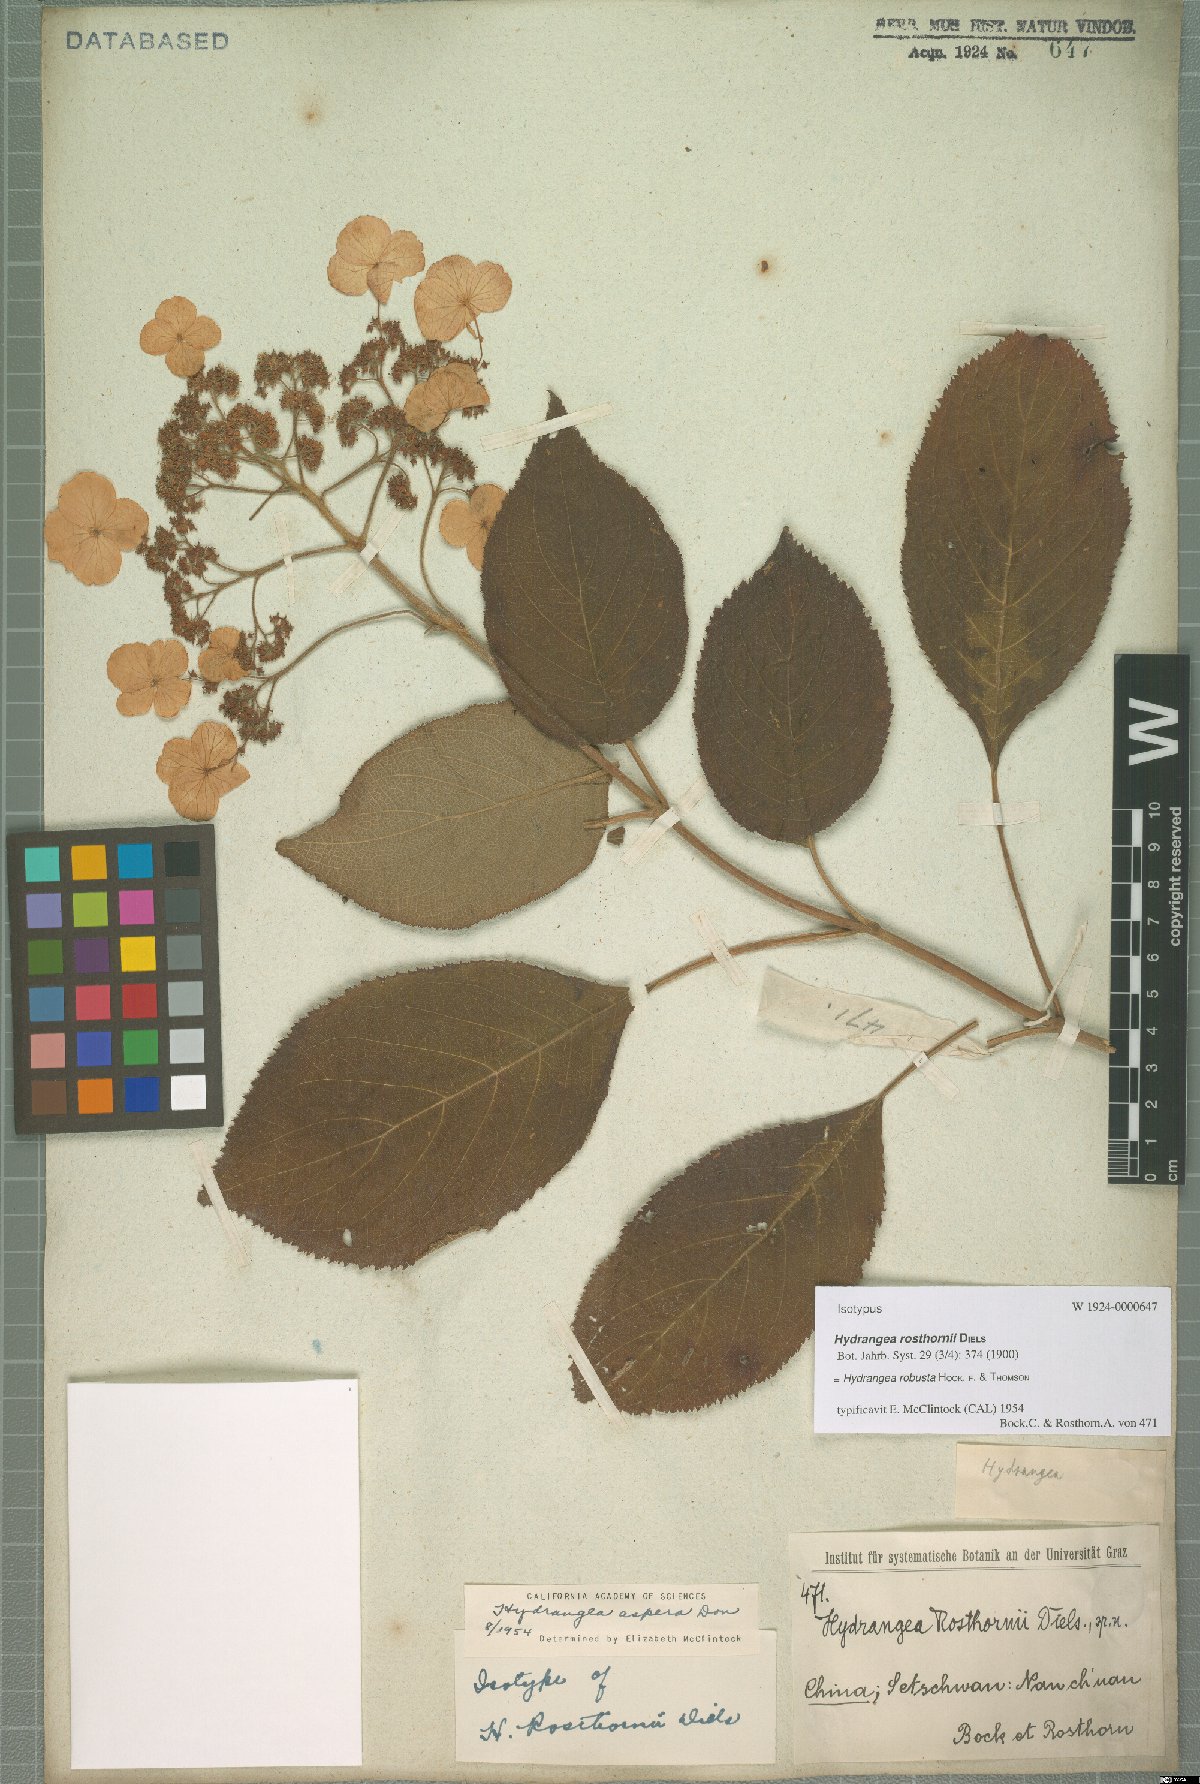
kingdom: Plantae
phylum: Tracheophyta
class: Magnoliopsida
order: Cornales
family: Hydrangeaceae
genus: Hydrangea
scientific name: Hydrangea robusta
